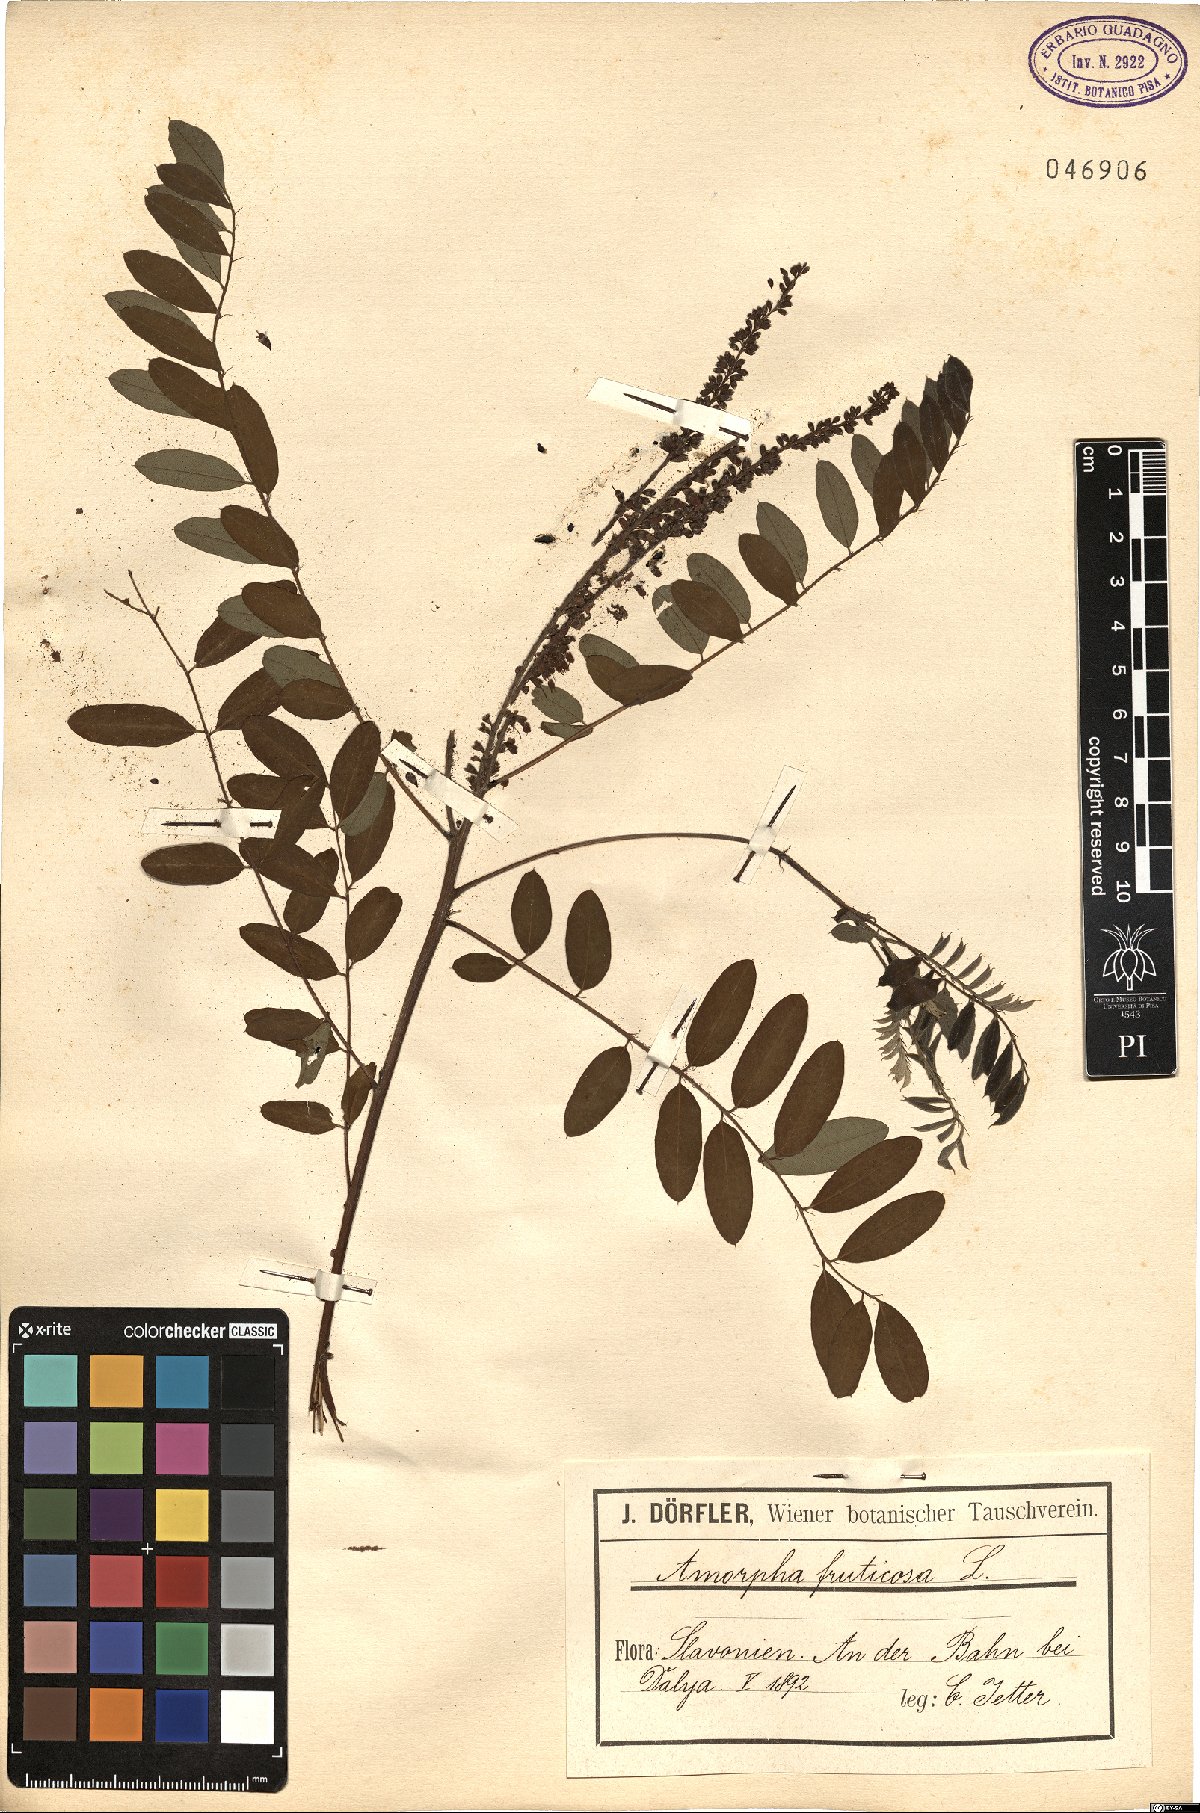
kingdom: Plantae
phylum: Tracheophyta
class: Magnoliopsida
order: Fabales
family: Fabaceae
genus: Amorpha
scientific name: Amorpha fruticosa
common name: False indigo
